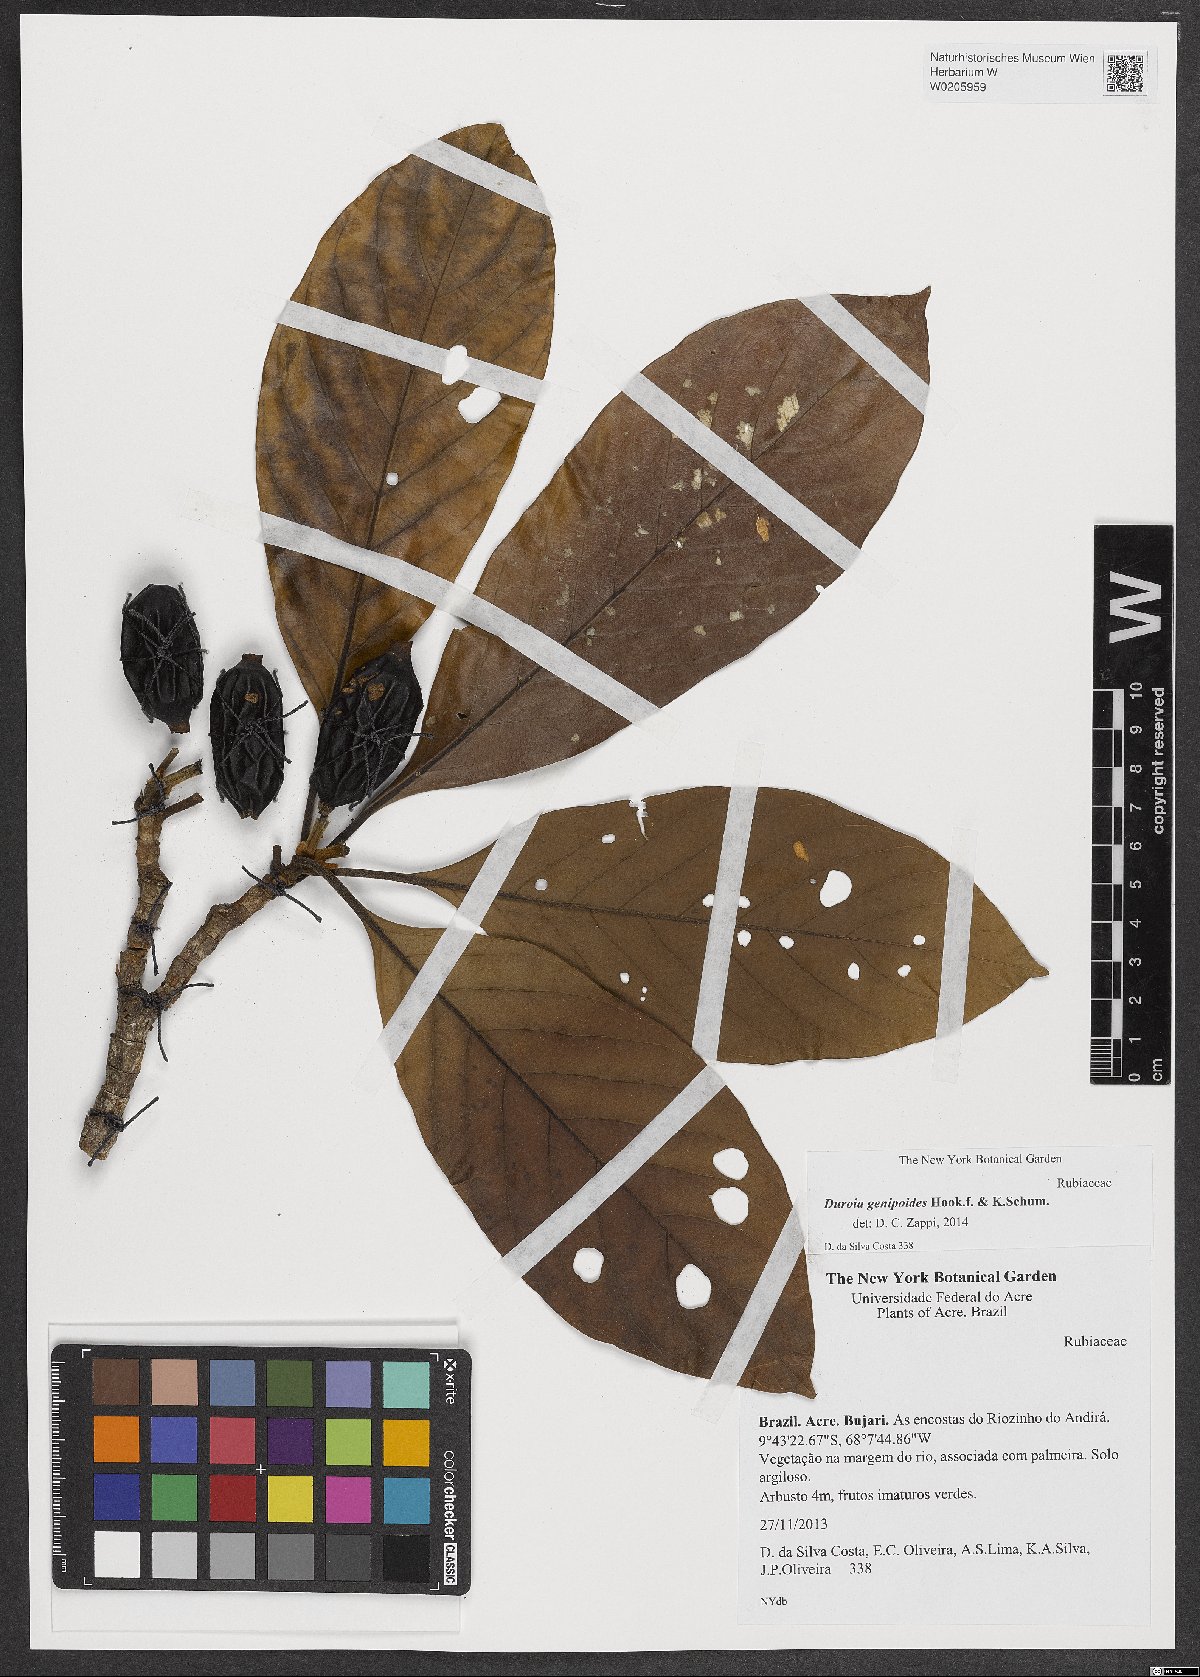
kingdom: Plantae
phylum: Tracheophyta
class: Magnoliopsida
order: Gentianales
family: Rubiaceae
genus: Duroia
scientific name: Duroia genipoides
